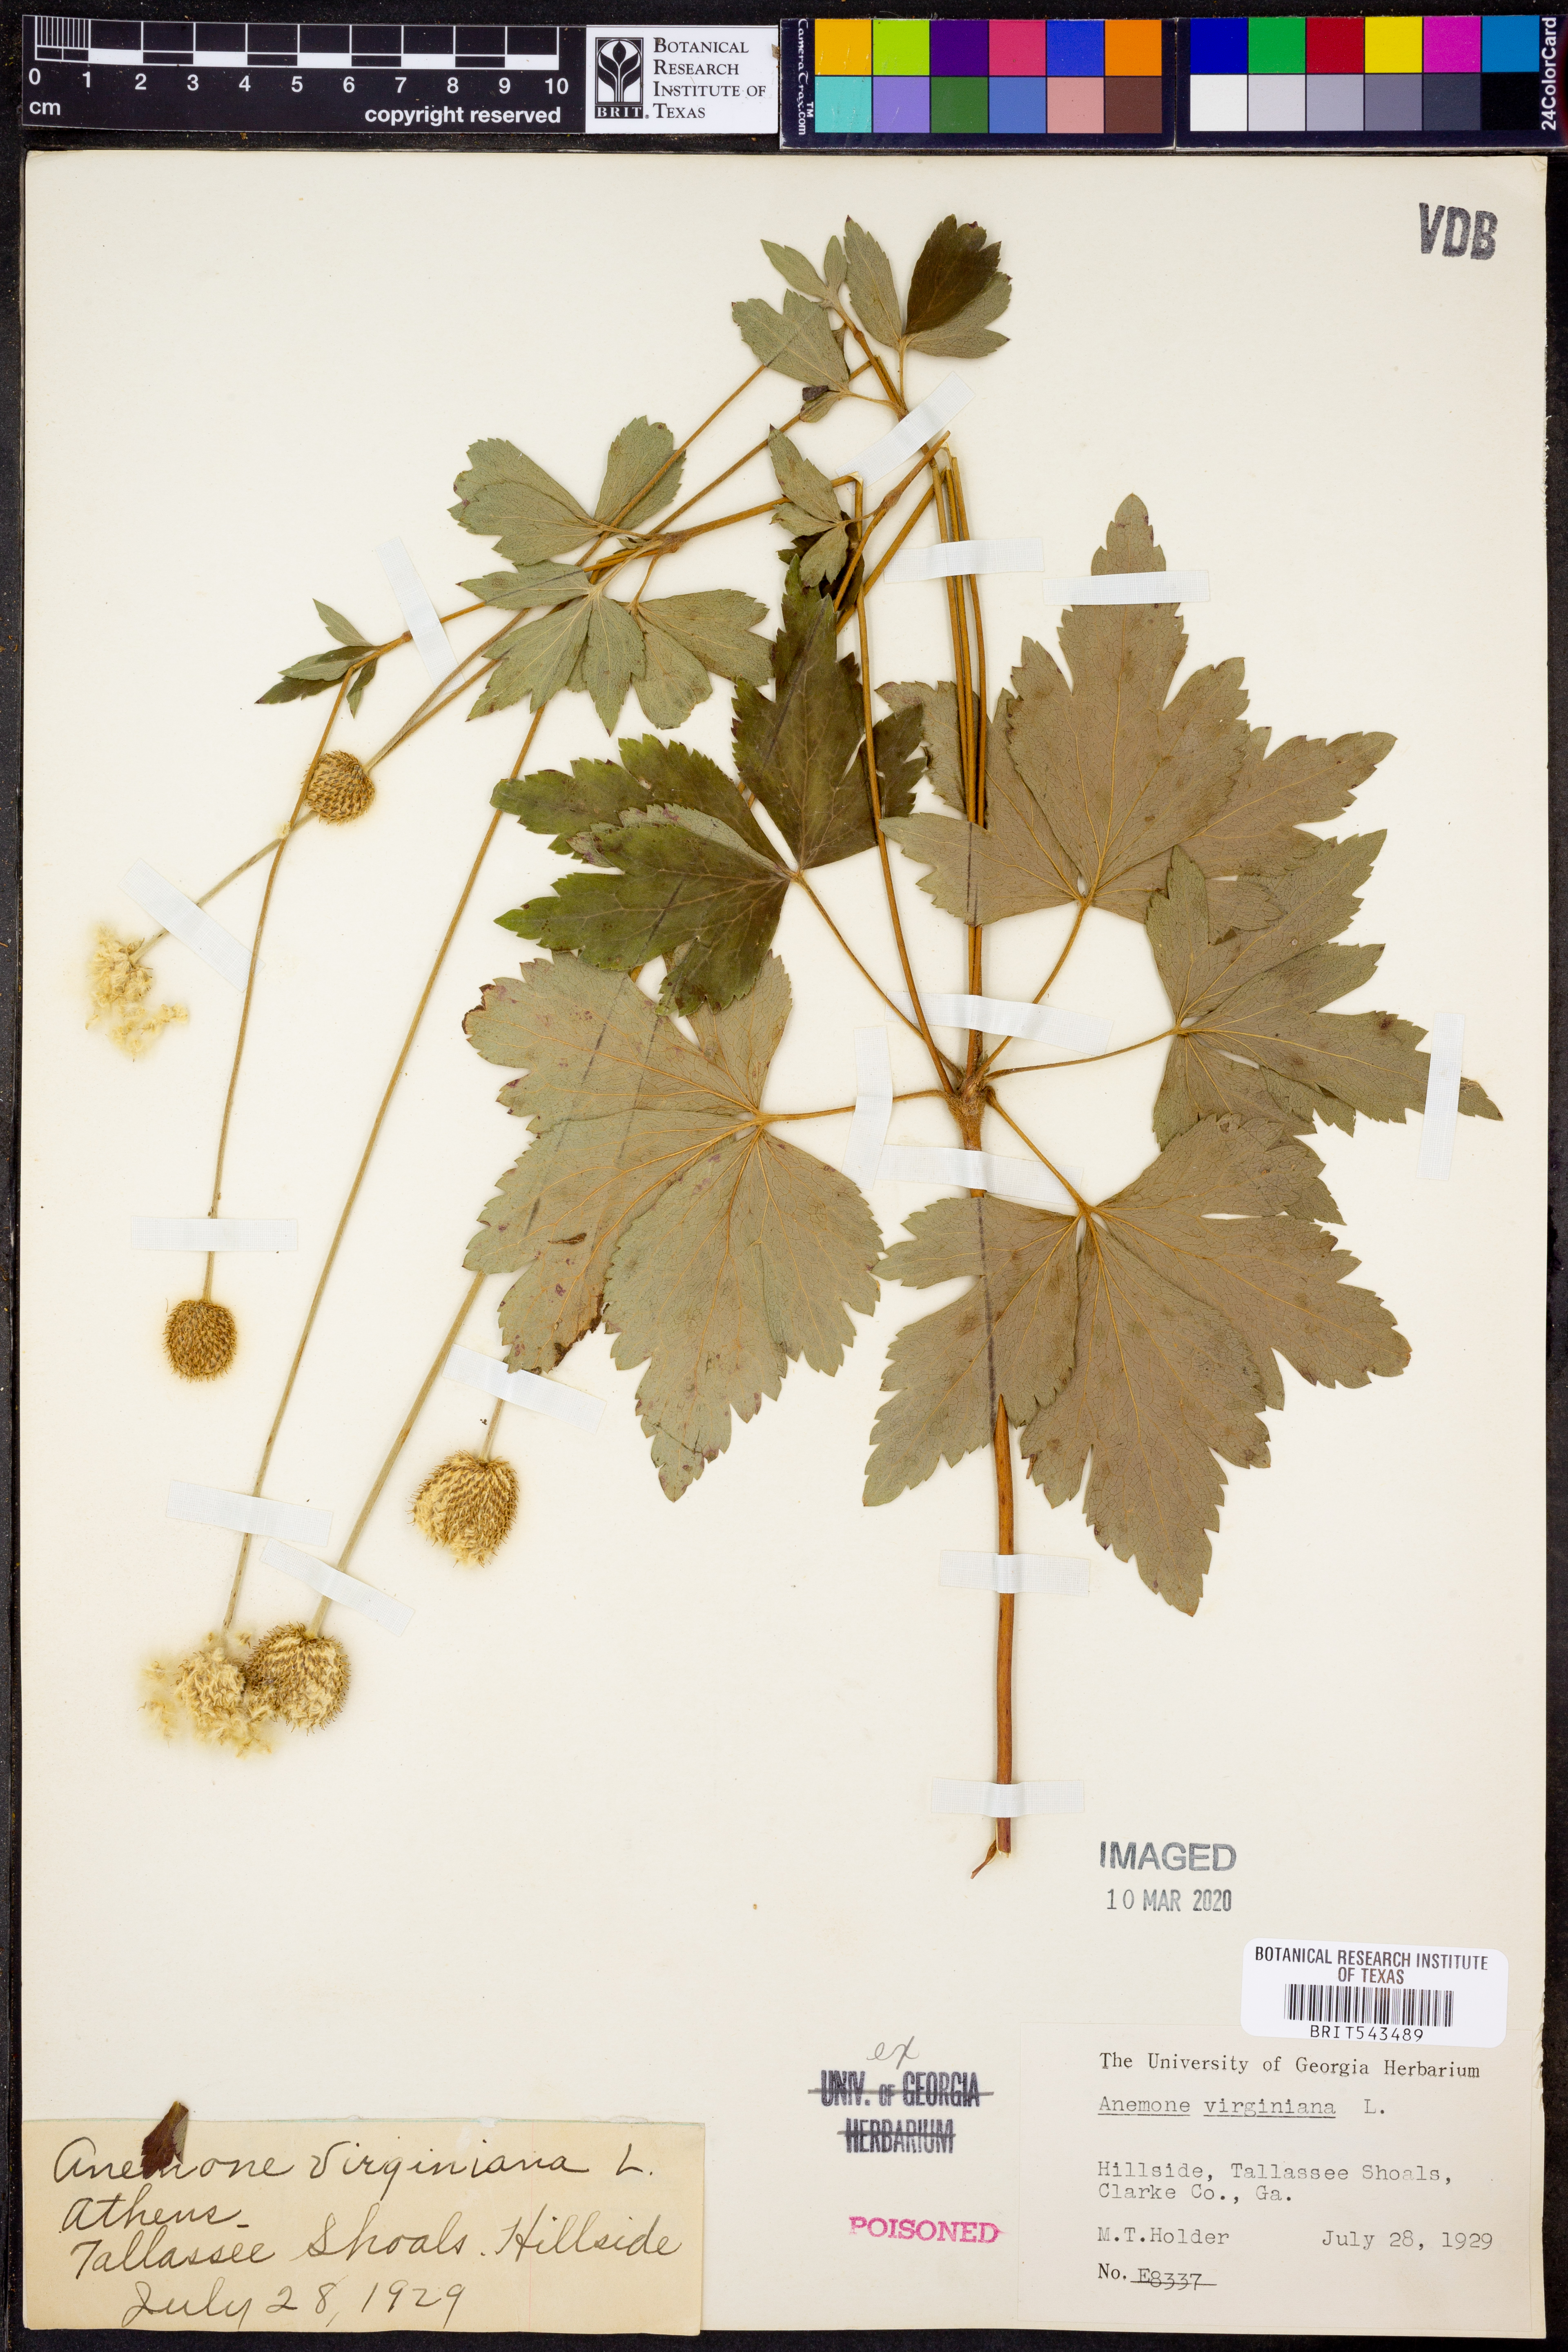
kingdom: Plantae
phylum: Tracheophyta
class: Magnoliopsida
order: Ranunculales
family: Ranunculaceae
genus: Anemone
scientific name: Anemone virginiana
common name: Tall anemone
